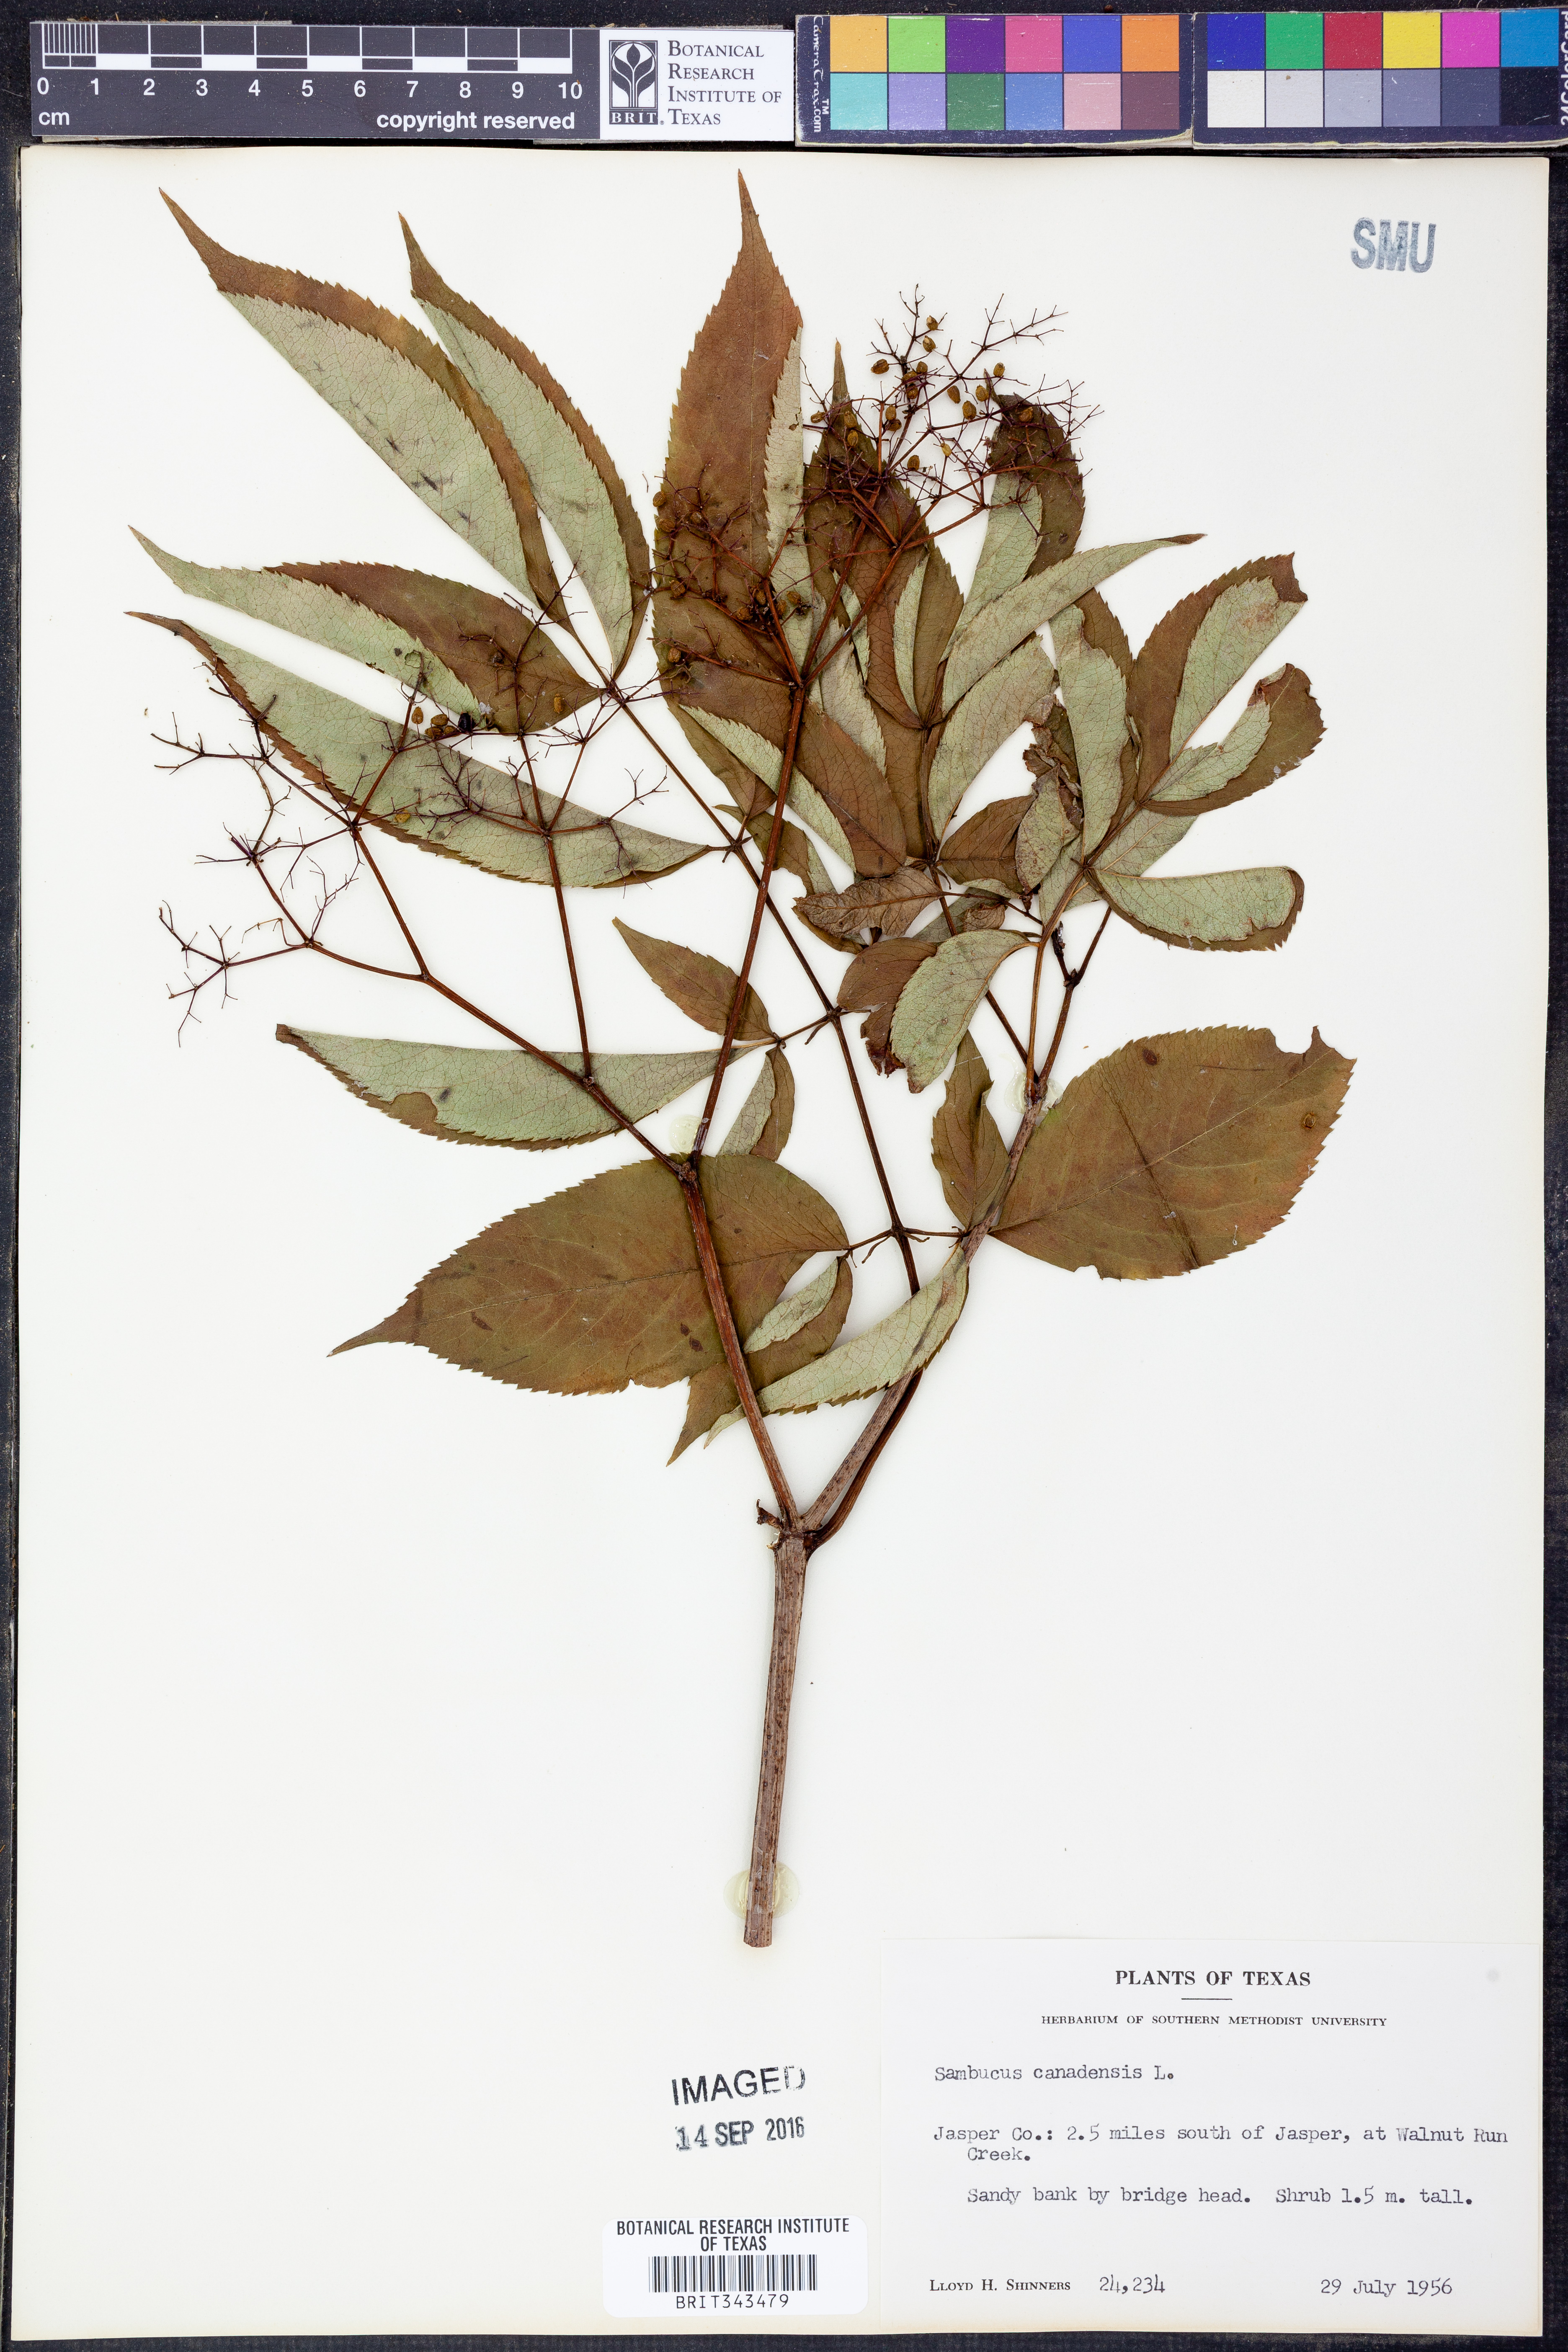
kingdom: Plantae
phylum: Tracheophyta
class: Magnoliopsida
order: Dipsacales
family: Viburnaceae
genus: Sambucus
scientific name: Sambucus canadensis
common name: American elder
